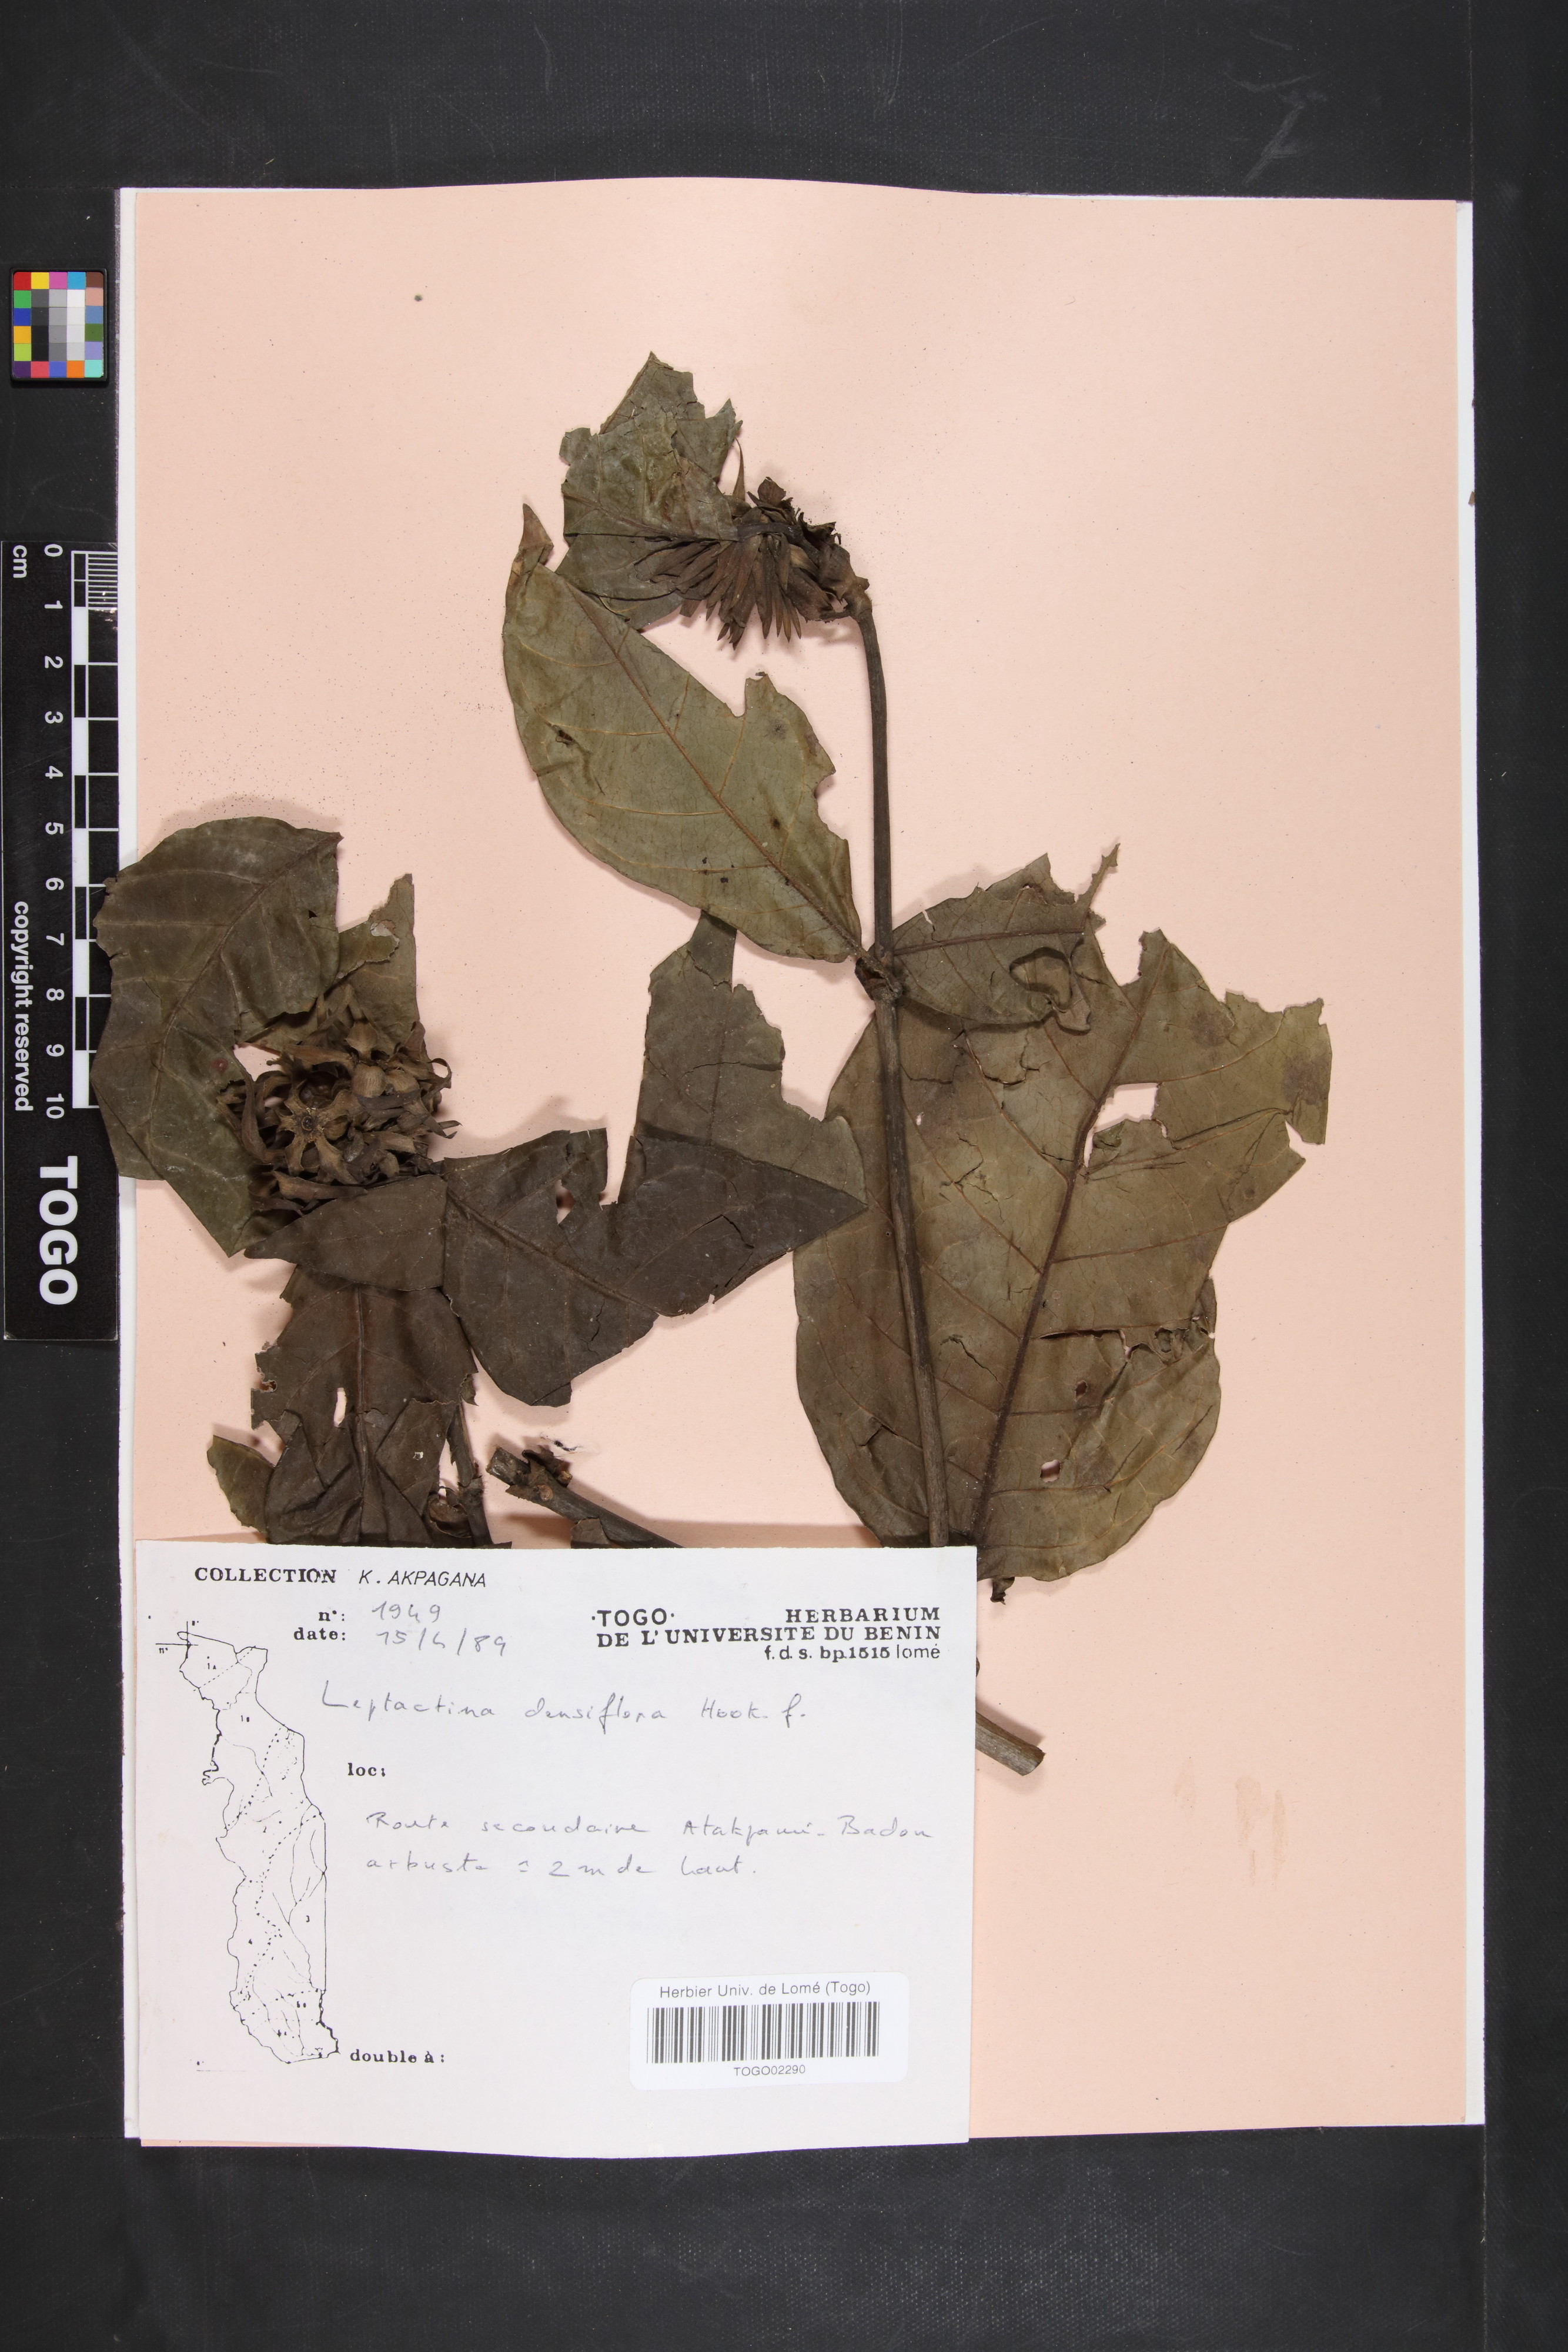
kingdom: Plantae
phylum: Tracheophyta
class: Magnoliopsida
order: Gentianales
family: Rubiaceae
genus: Leptactina
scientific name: Leptactina densiflora
